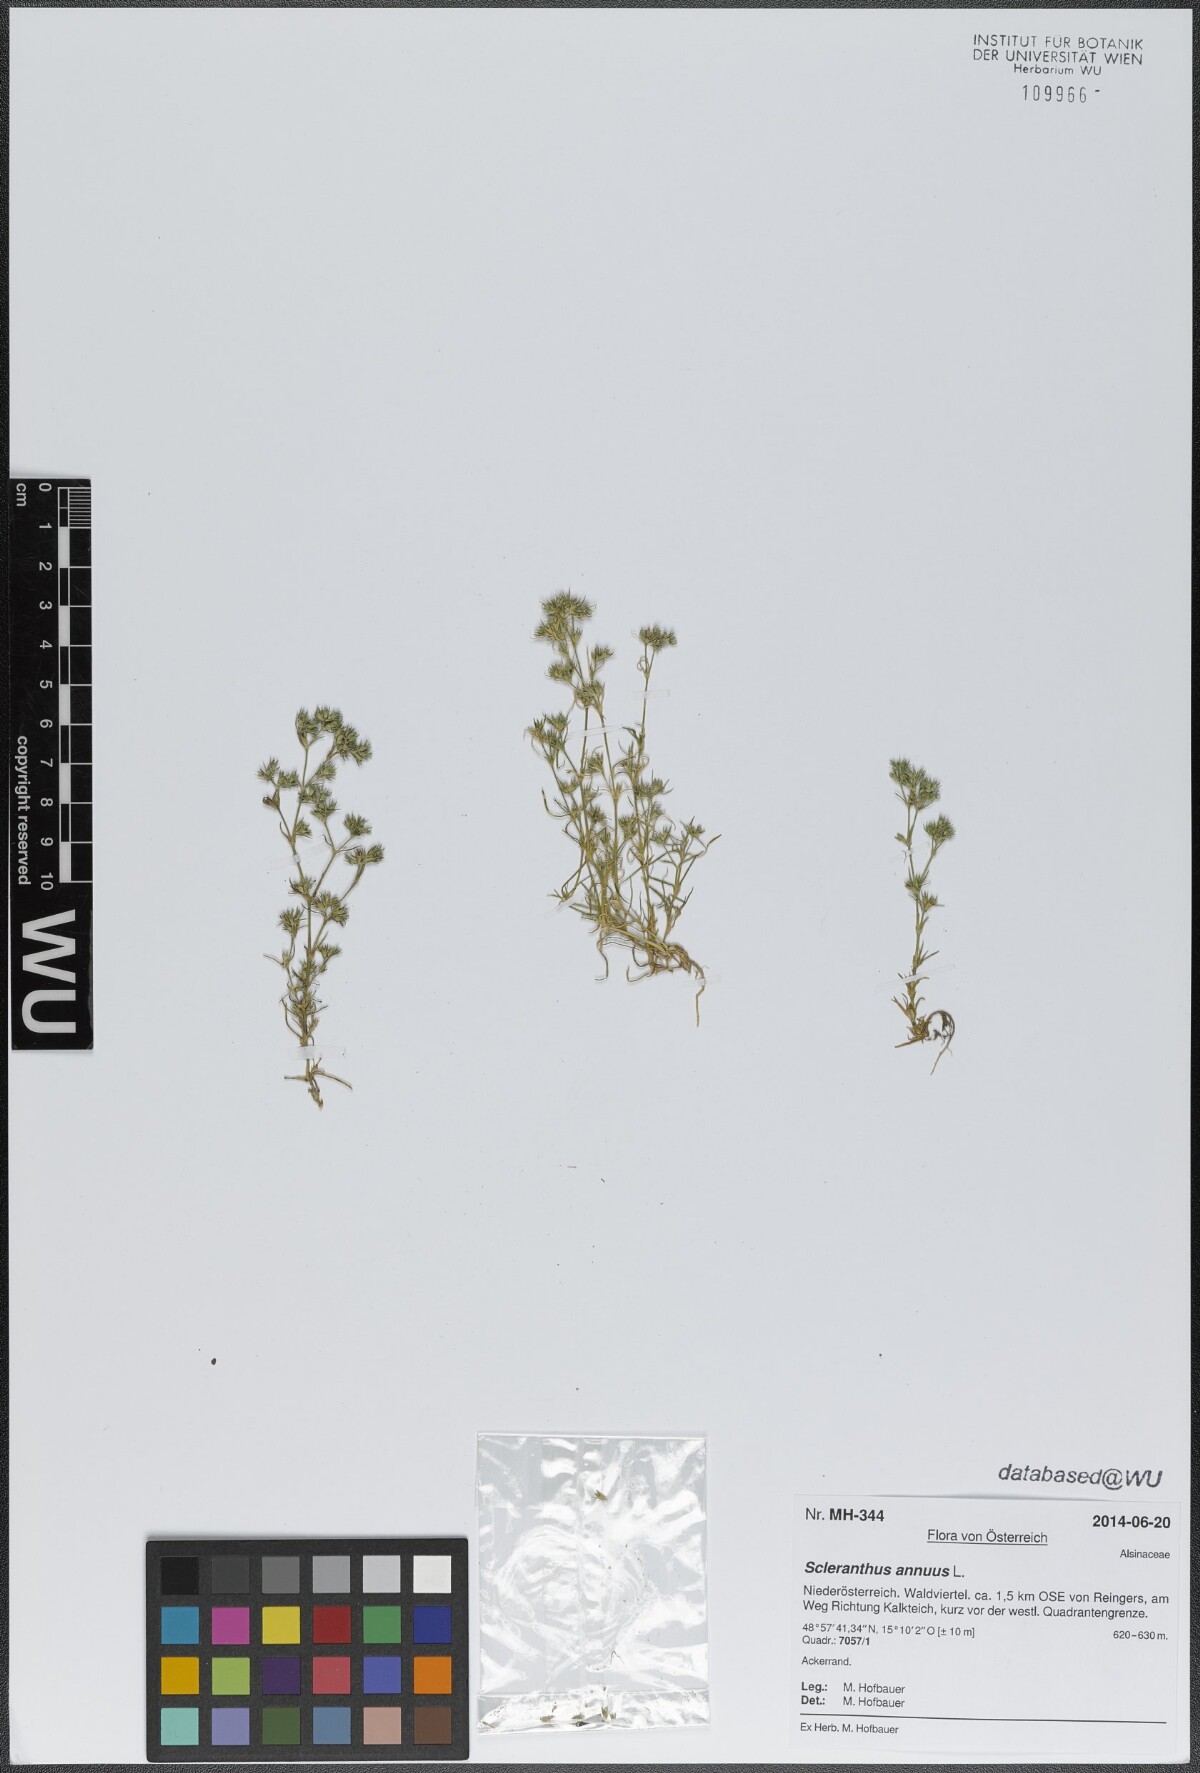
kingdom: Plantae
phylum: Tracheophyta
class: Magnoliopsida
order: Caryophyllales
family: Caryophyllaceae
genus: Scleranthus
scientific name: Scleranthus annuus
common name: Annual knawel
